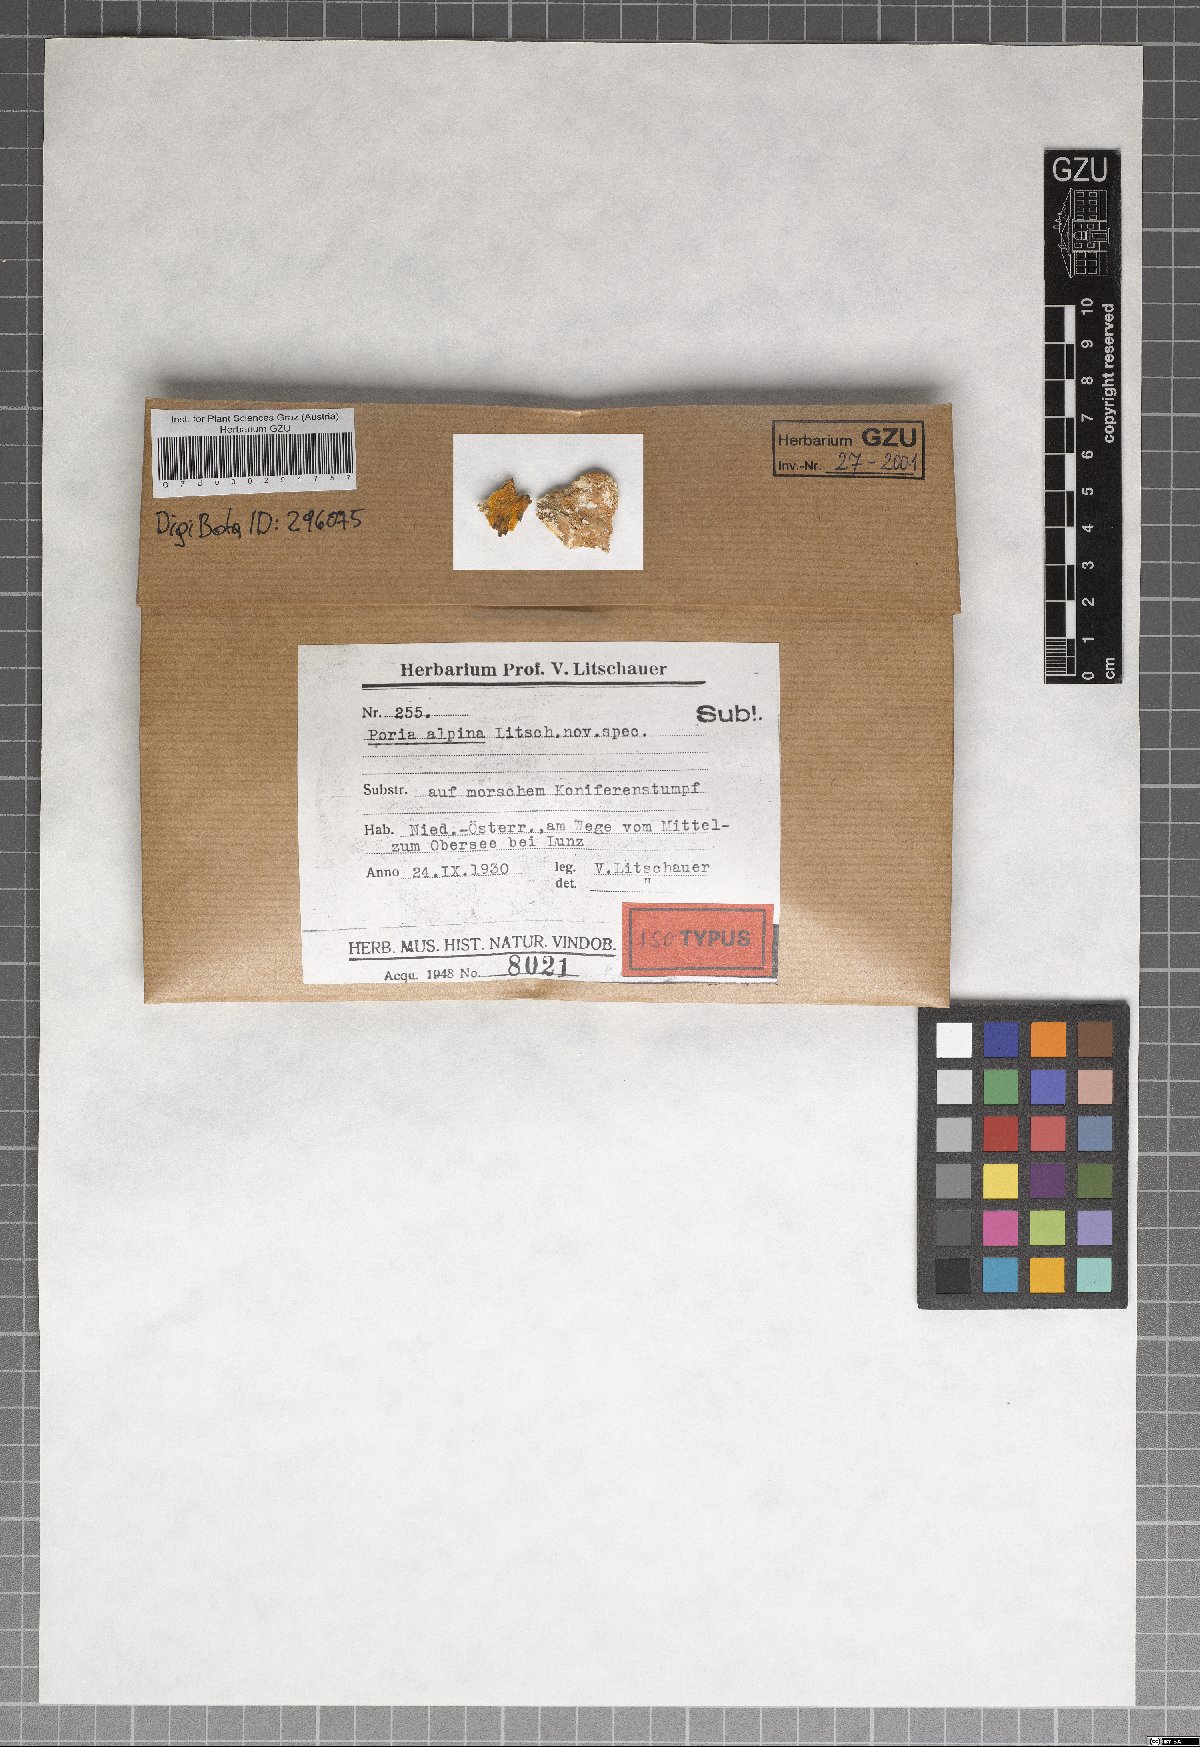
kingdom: Fungi
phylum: Basidiomycota
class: Agaricomycetes
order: Polyporales
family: Fomitopsidaceae
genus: Antrodia
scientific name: Antrodia alpina
